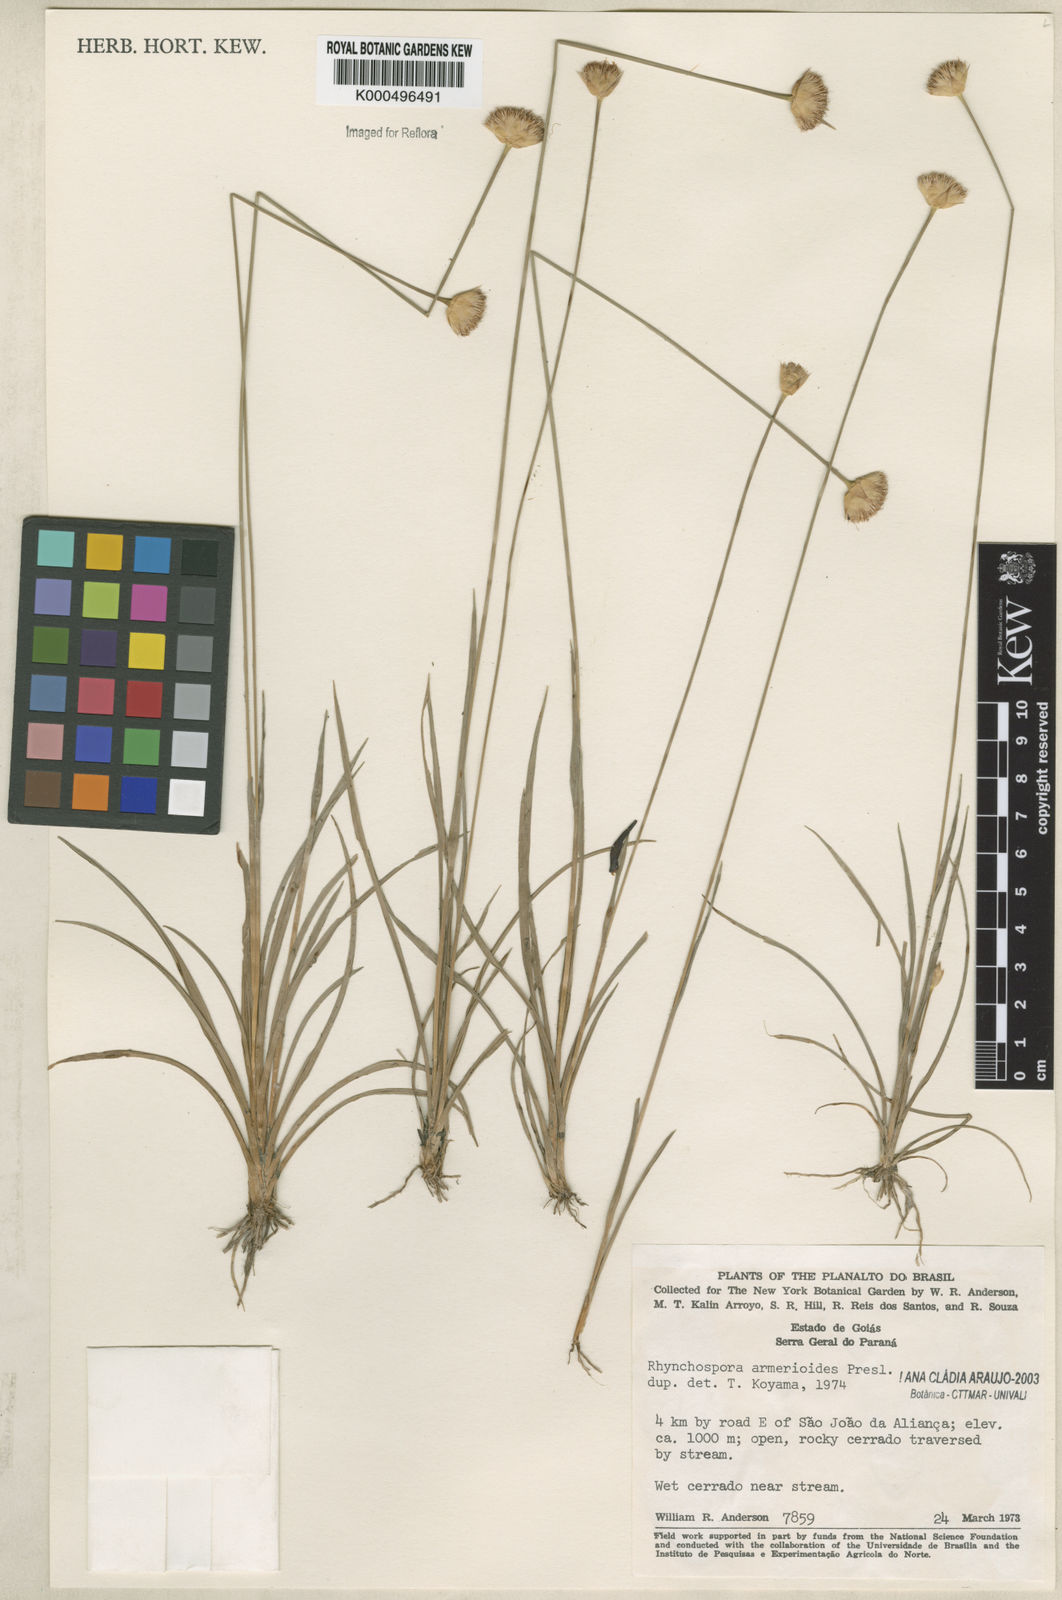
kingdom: Plantae
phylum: Tracheophyta
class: Liliopsida
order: Poales
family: Cyperaceae
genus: Rhynchospora
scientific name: Rhynchospora armerioides
